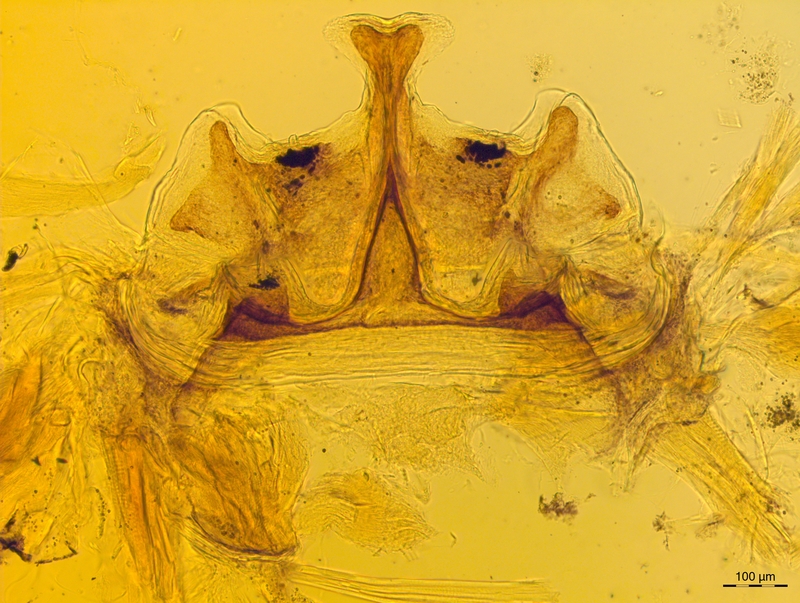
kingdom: Animalia
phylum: Arthropoda
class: Diplopoda
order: Chordeumatida
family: Craspedosomatidae
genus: Craspedosoma
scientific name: Craspedosoma slavum
